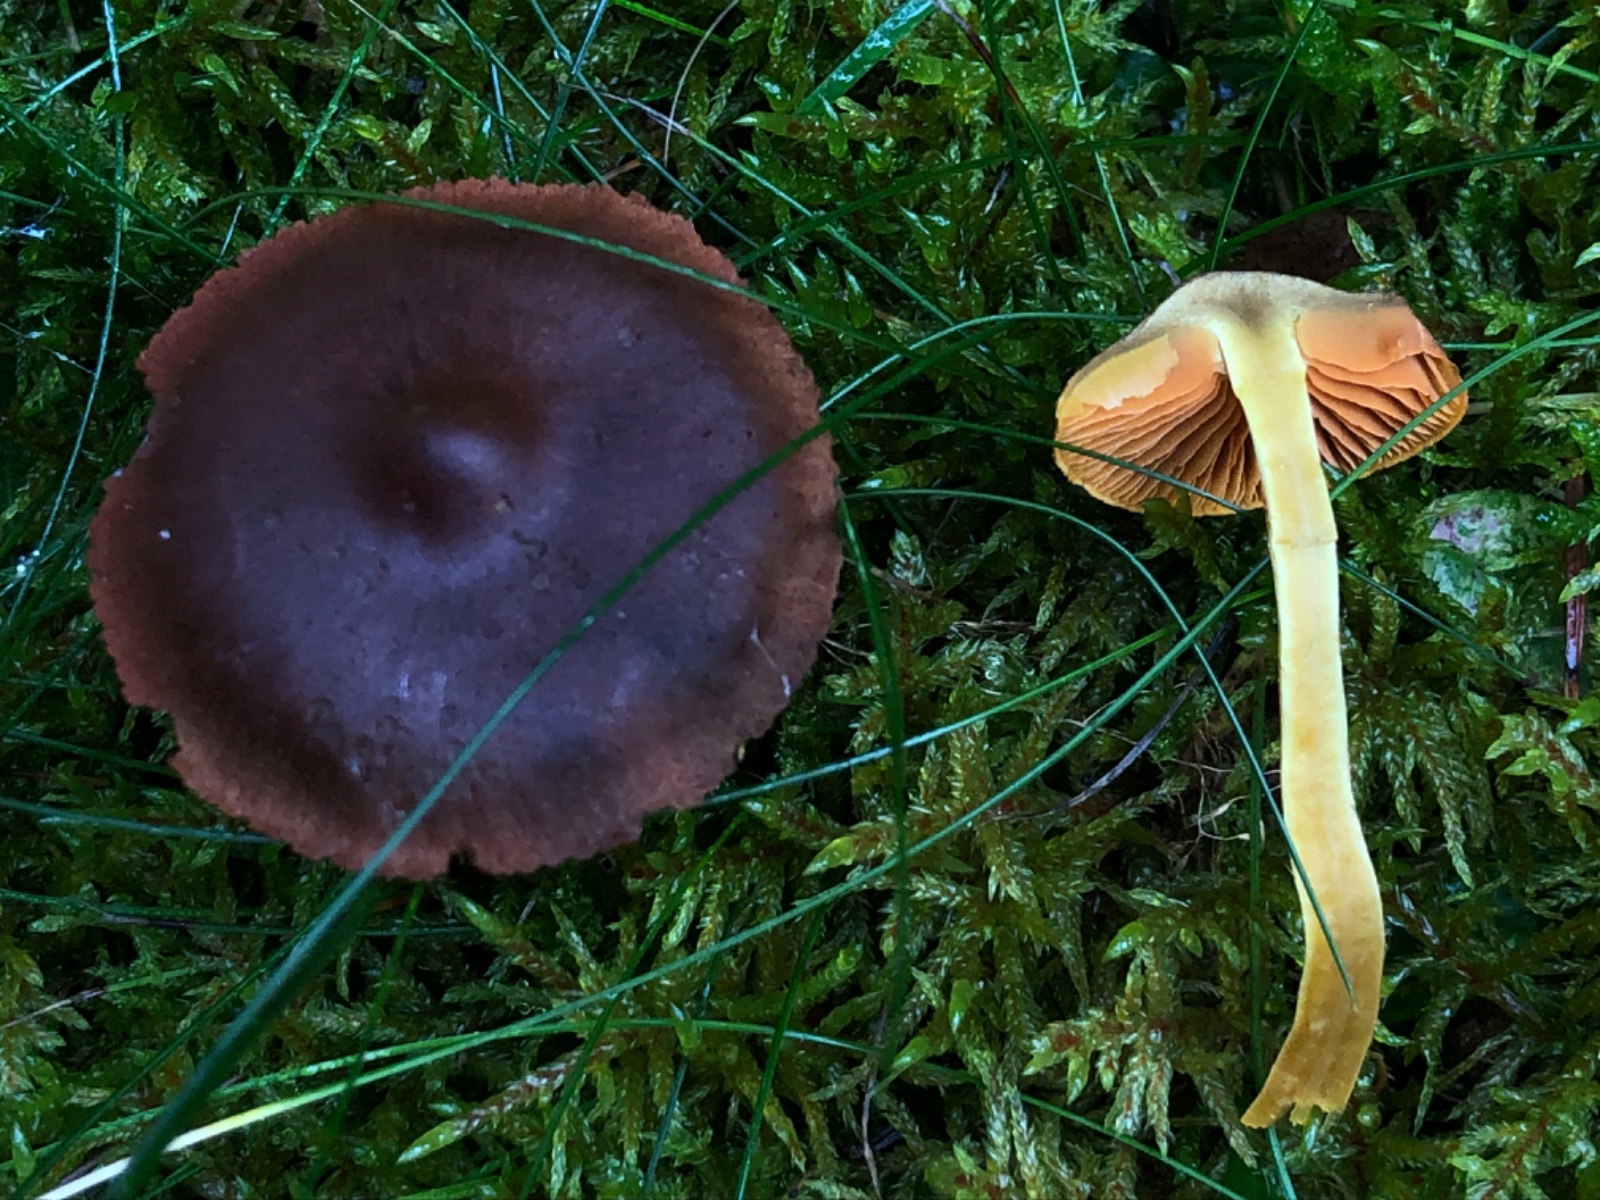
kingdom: Fungi
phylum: Basidiomycota
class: Agaricomycetes
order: Agaricales
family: Cortinariaceae
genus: Cortinarius
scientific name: Cortinarius
